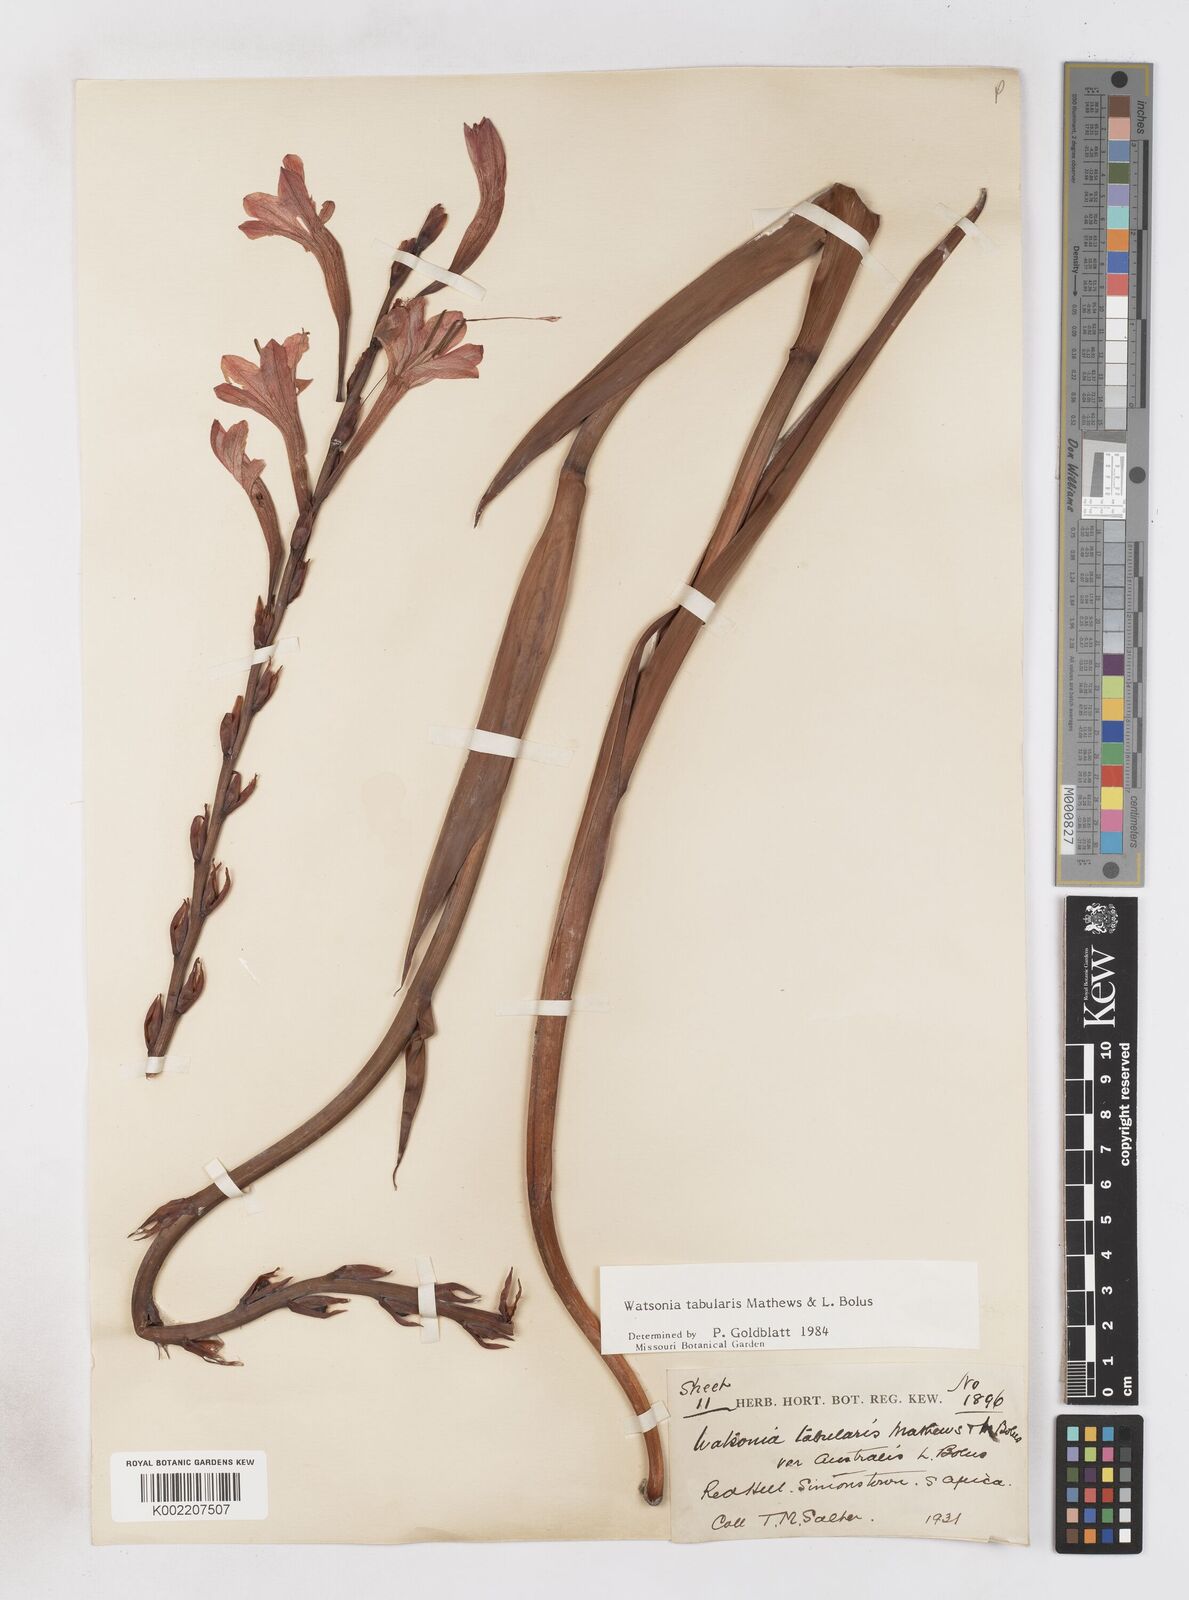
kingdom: Plantae
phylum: Tracheophyta
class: Liliopsida
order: Asparagales
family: Iridaceae
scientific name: Iridaceae
